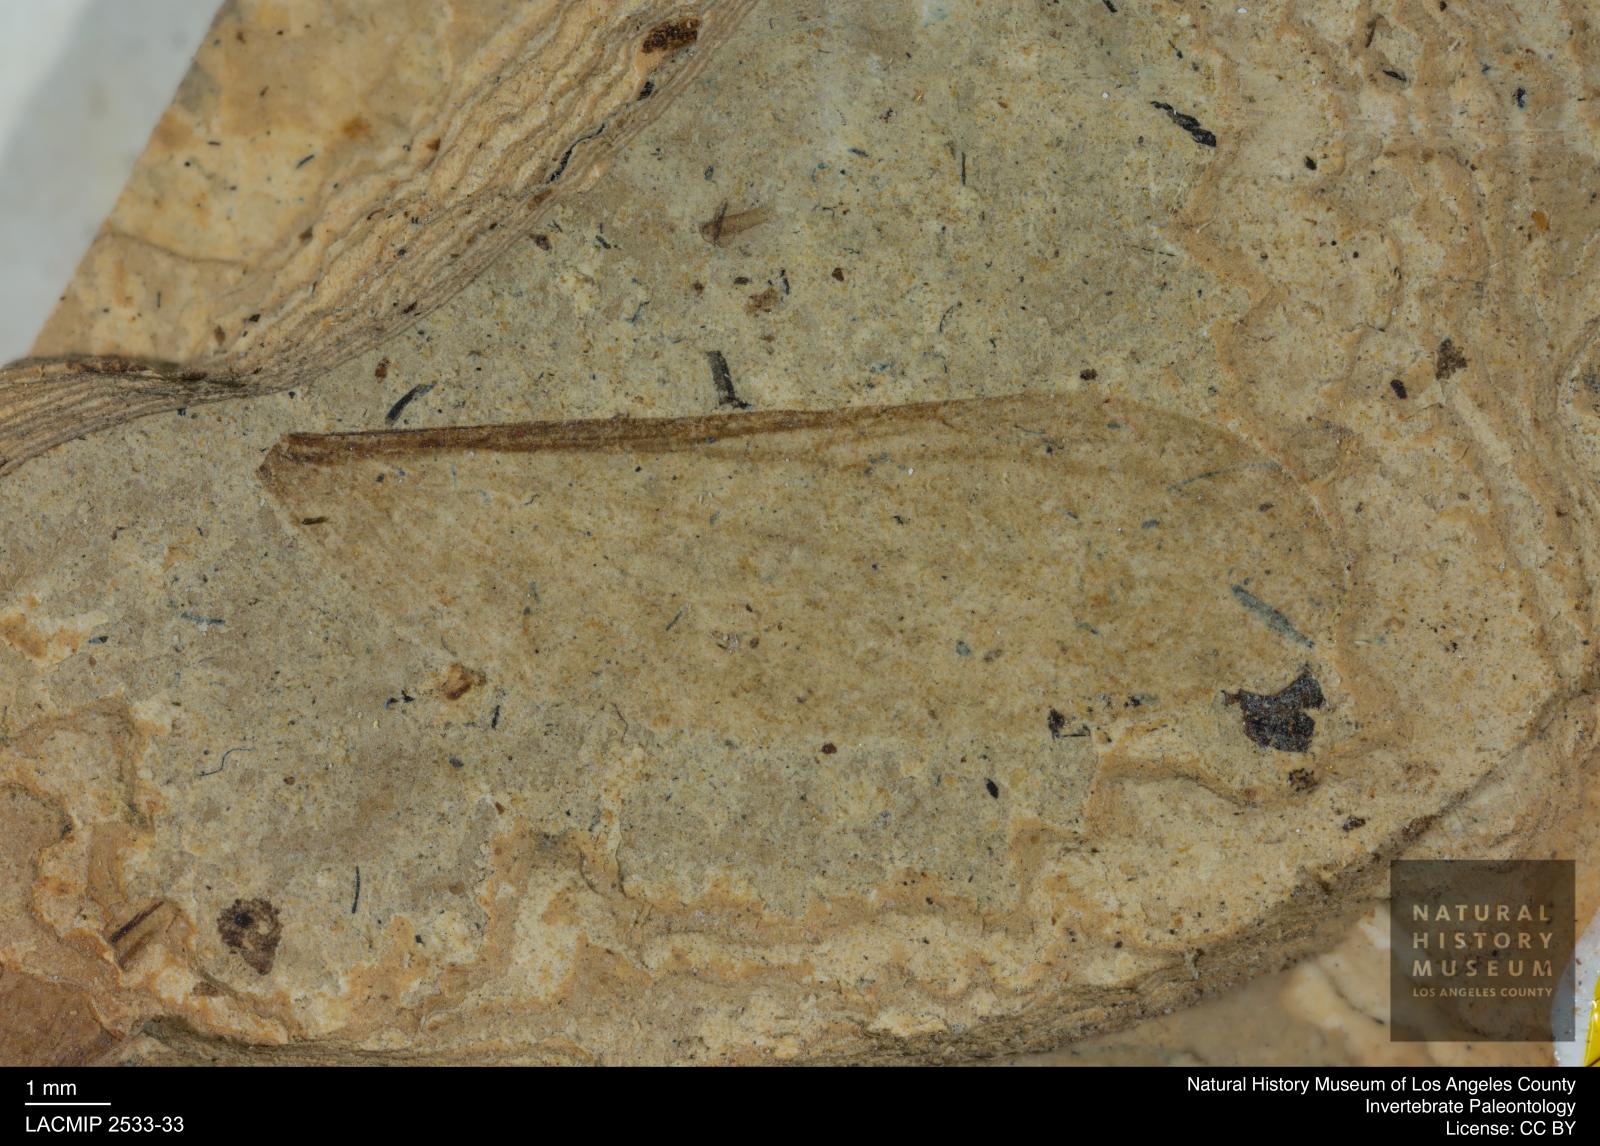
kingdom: Animalia
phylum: Arthropoda
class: Insecta
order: Blattodea
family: Hodotermitidae
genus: Ulmeriella
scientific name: Ulmeriella bauckhorni
